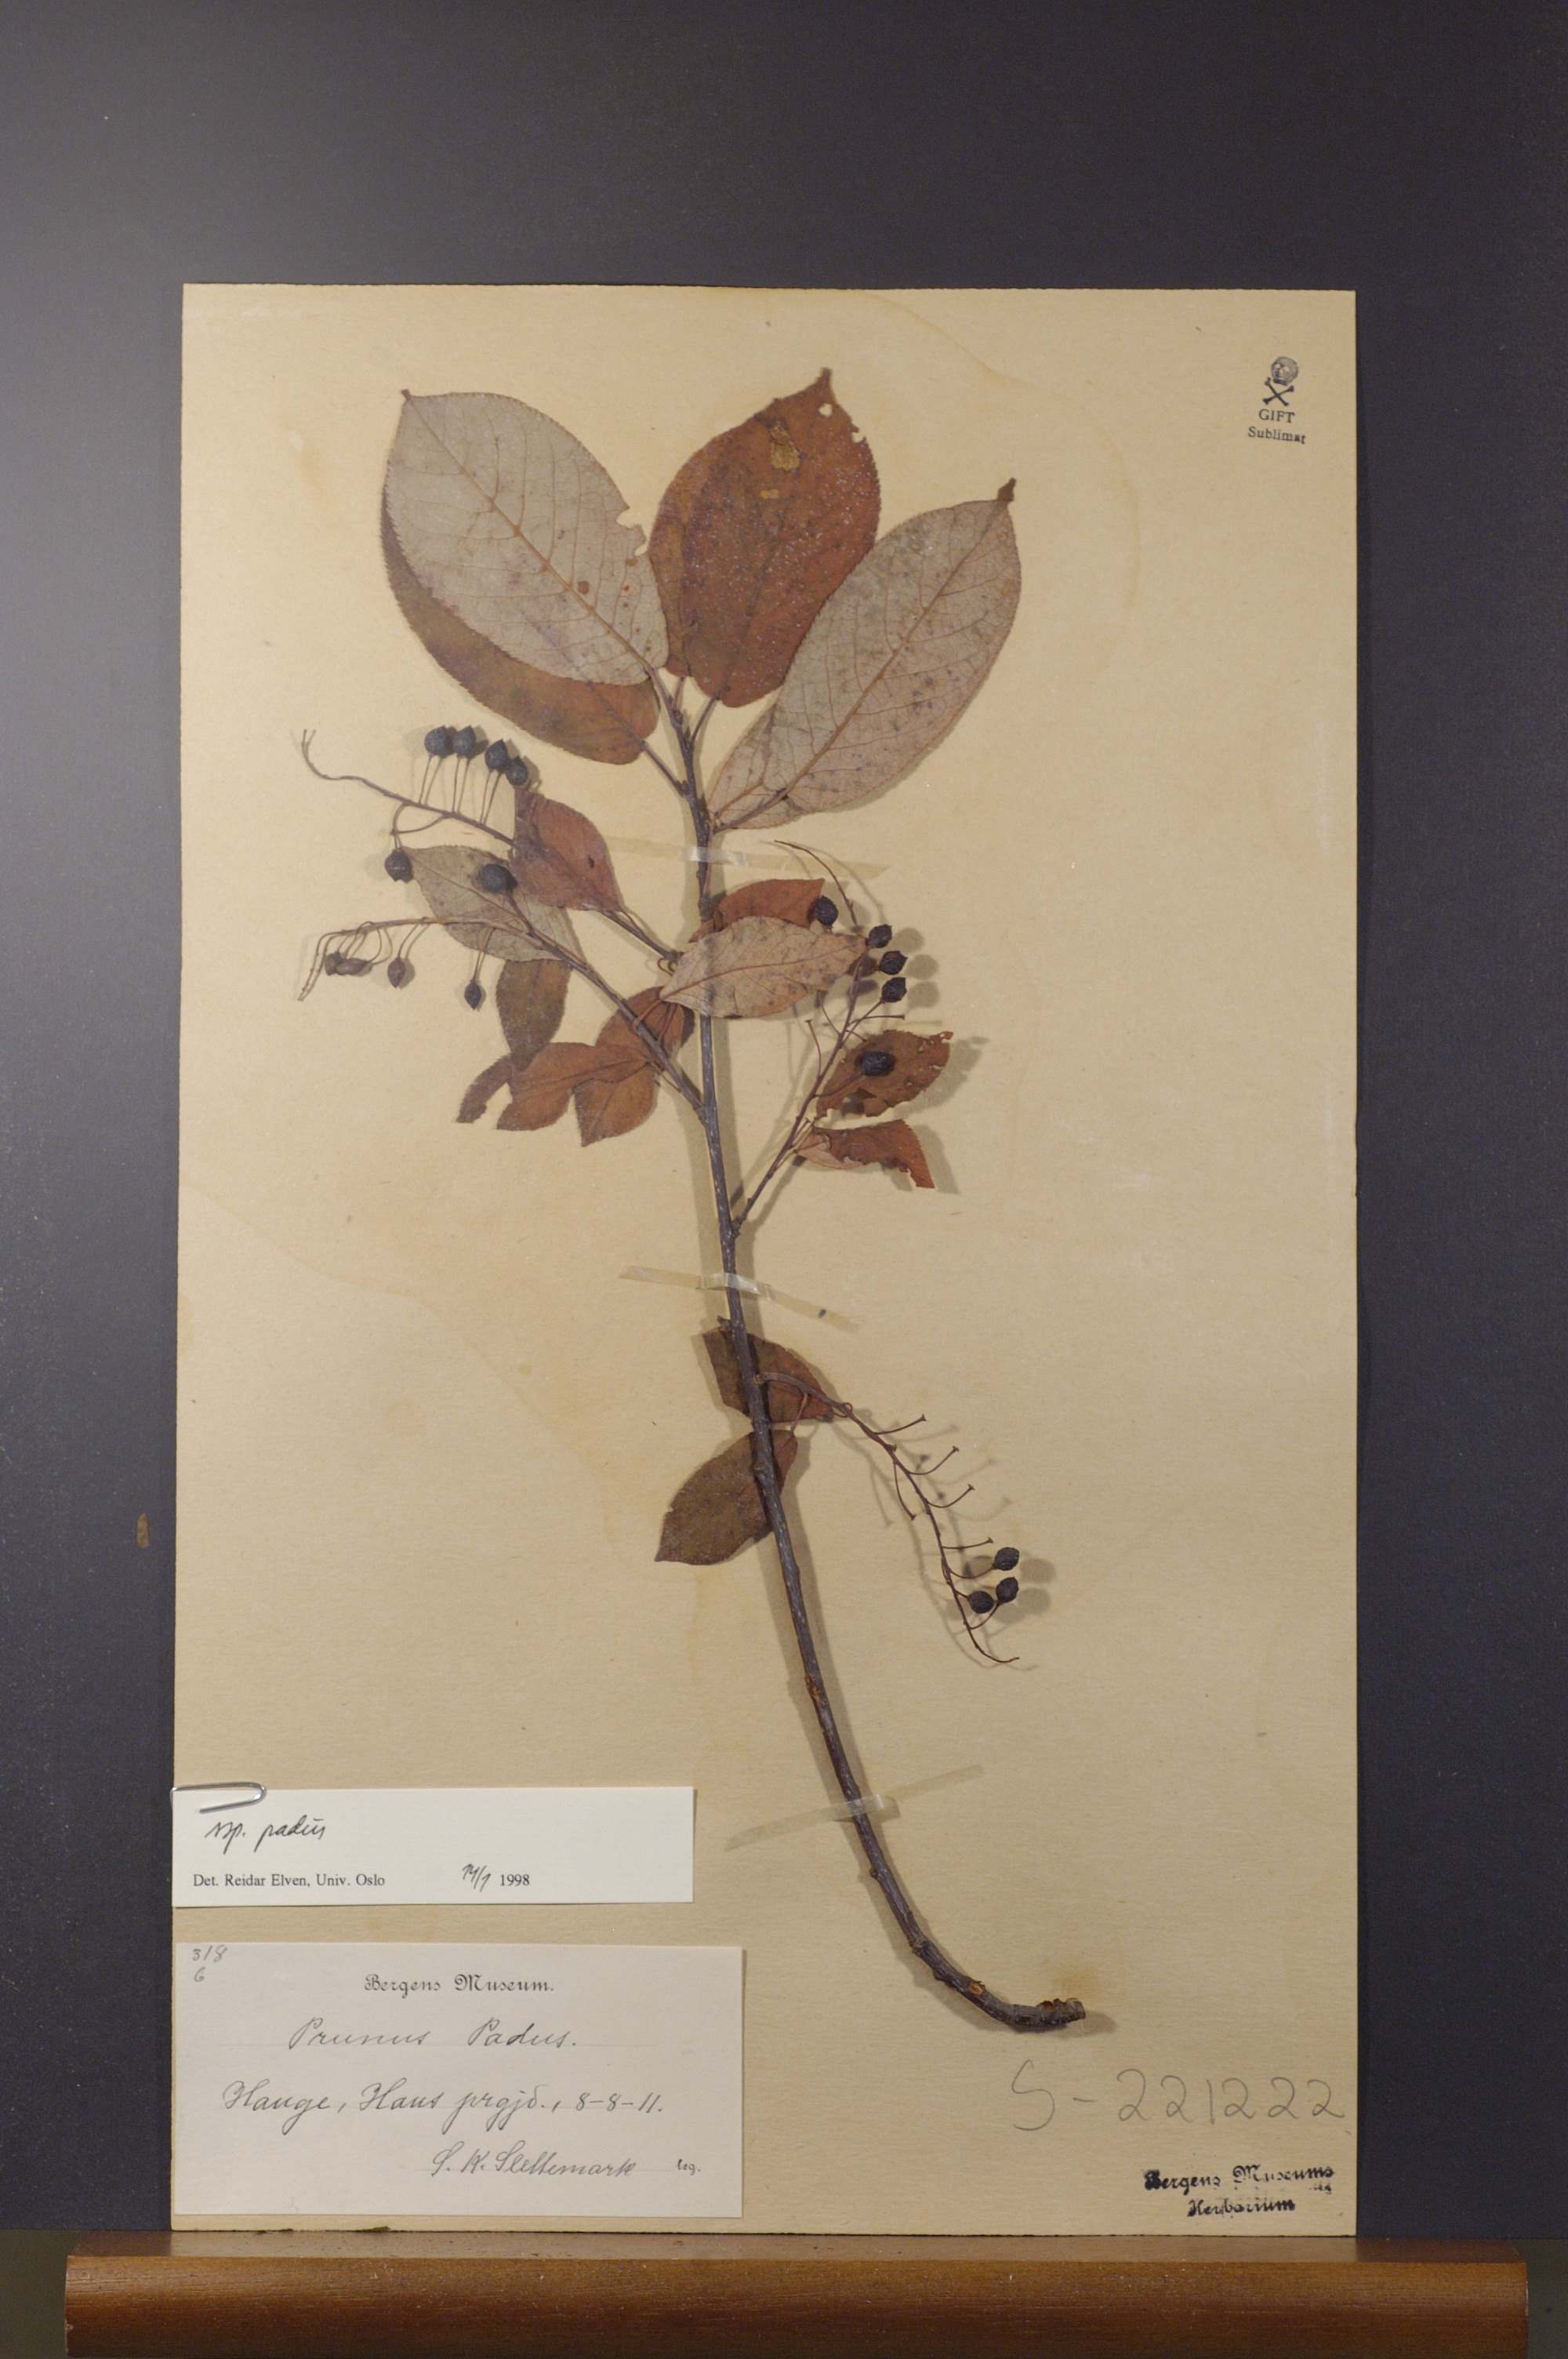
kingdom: Plantae
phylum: Tracheophyta
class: Magnoliopsida
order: Rosales
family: Rosaceae
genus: Prunus
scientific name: Prunus padus
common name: Bird cherry
